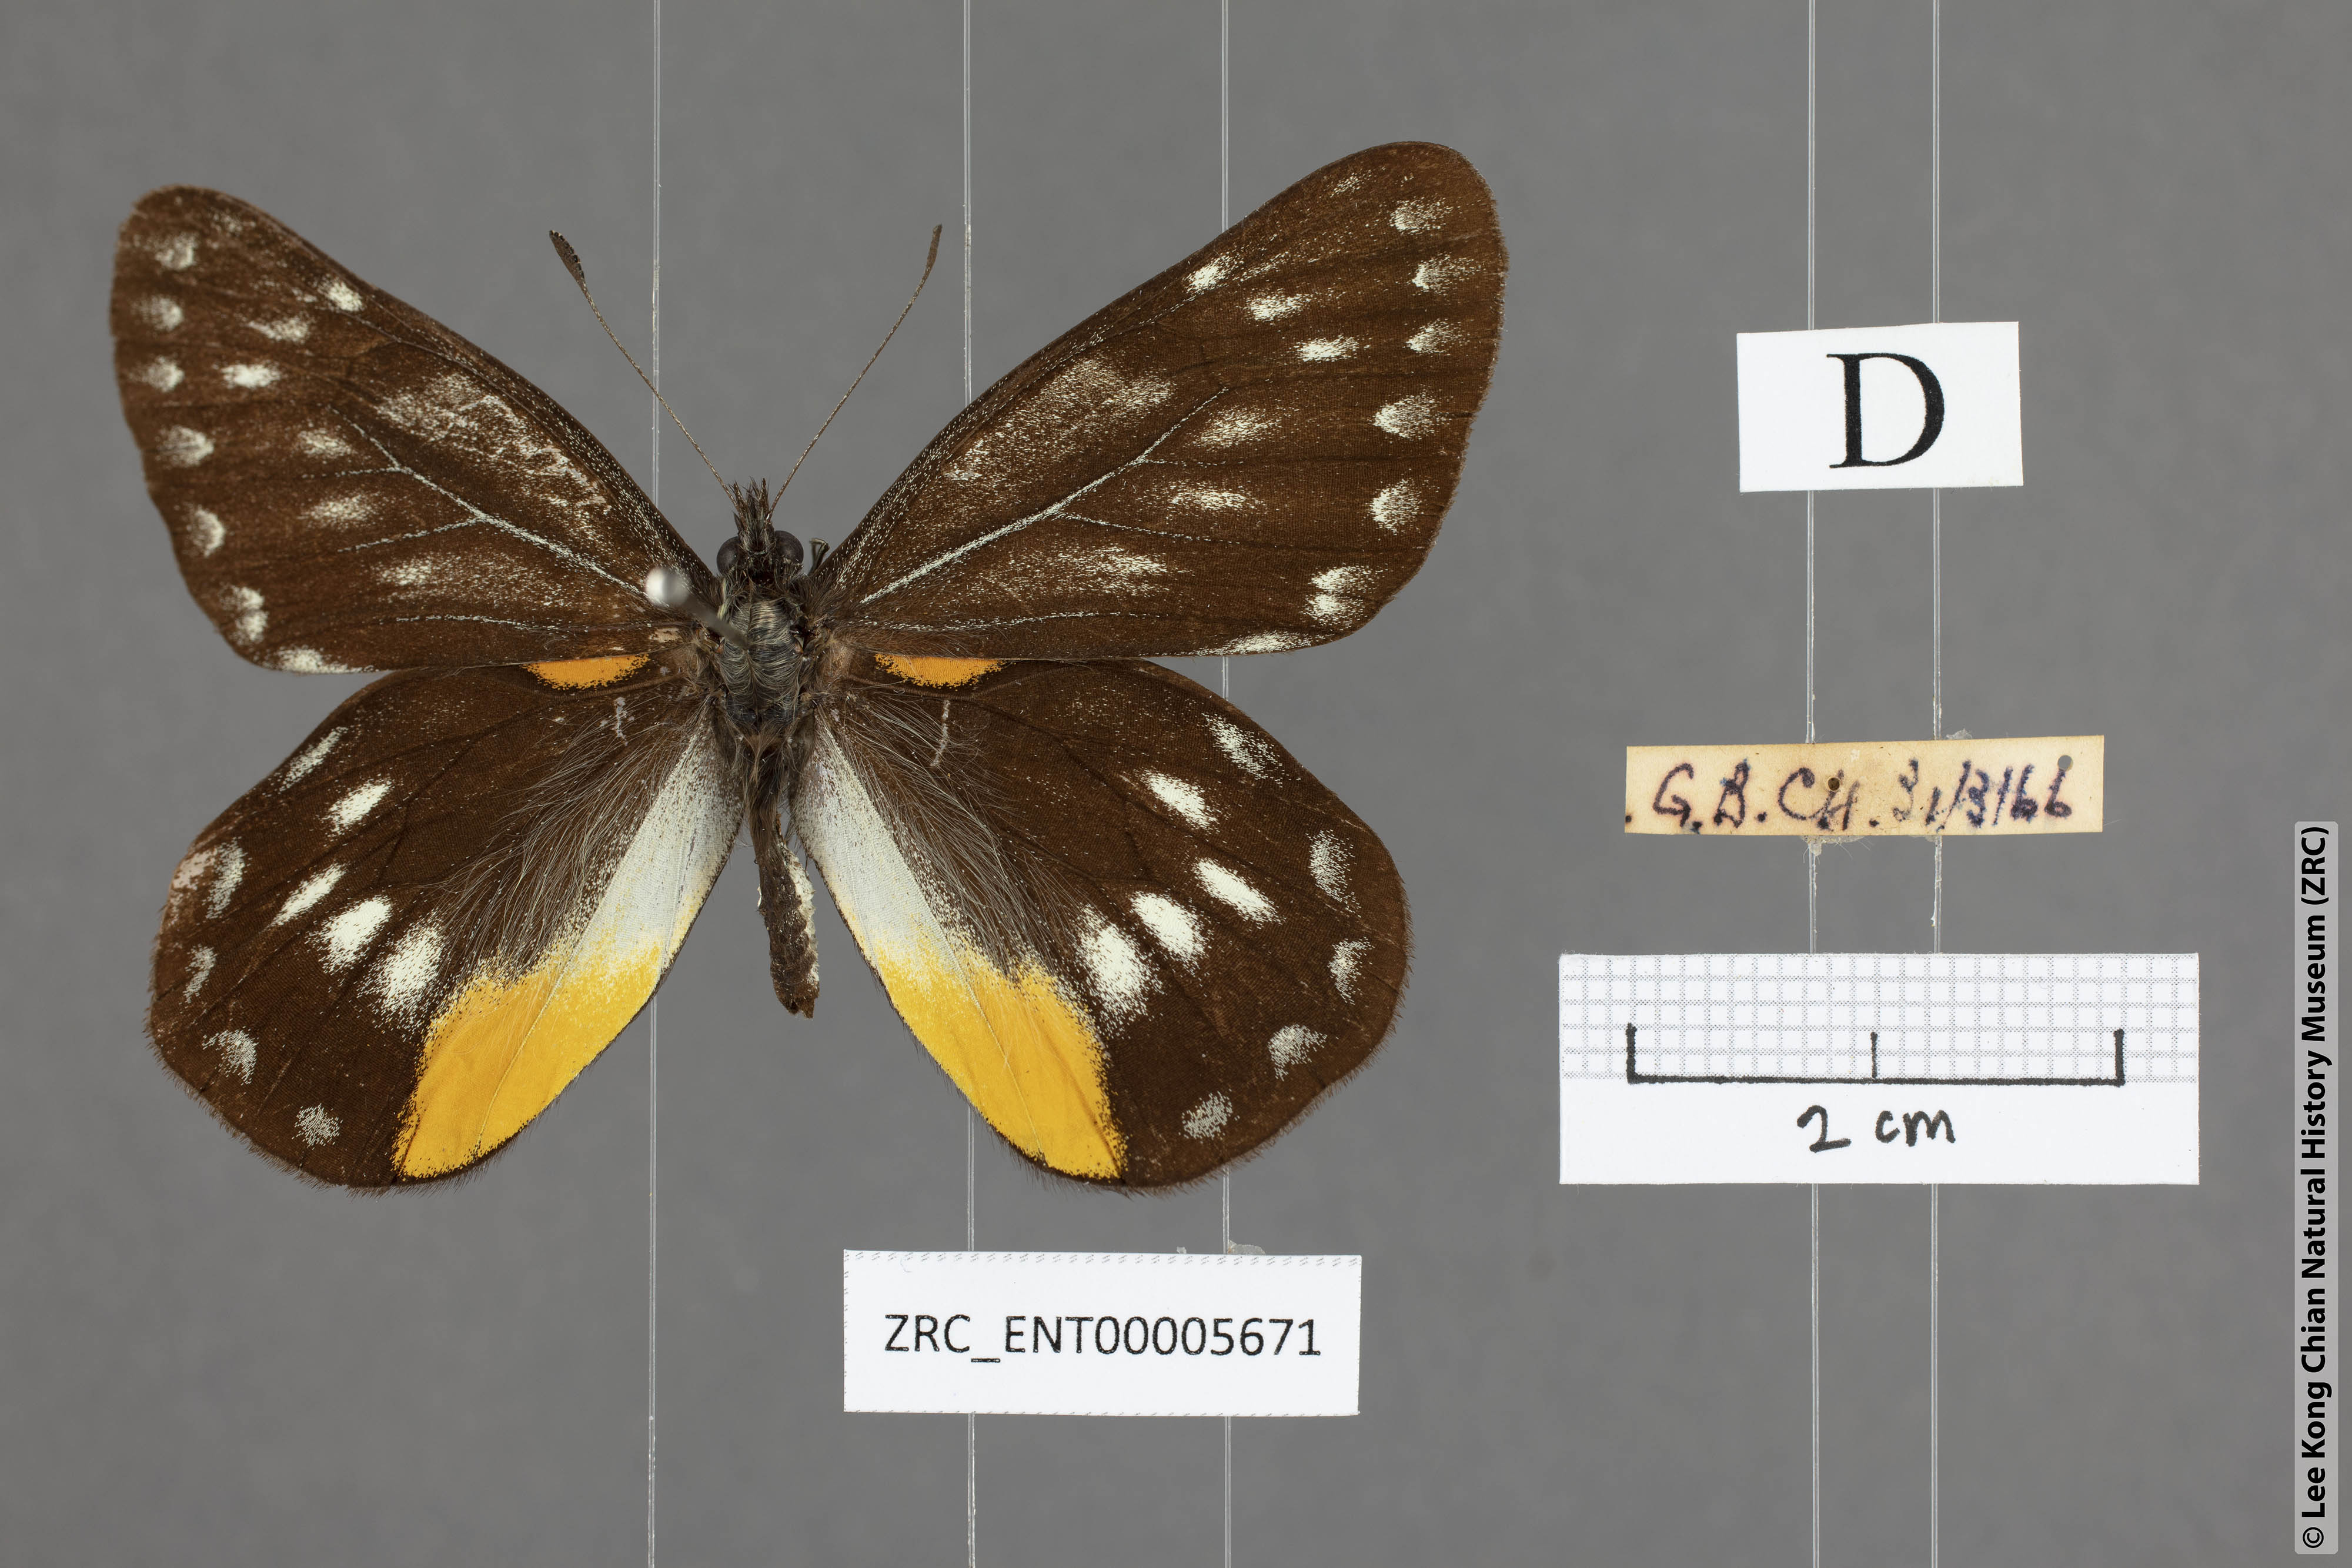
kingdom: Animalia
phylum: Arthropoda
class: Insecta
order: Lepidoptera
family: Pieridae
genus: Delias
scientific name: Delias belladonna
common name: Hill jezebel
